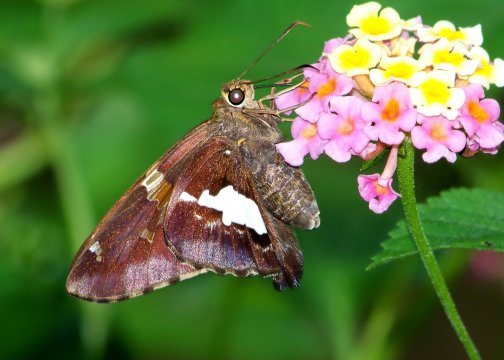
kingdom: Animalia
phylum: Arthropoda
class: Insecta
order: Lepidoptera
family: Hesperiidae
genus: Epargyreus
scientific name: Epargyreus clarus
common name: Silver-spotted Skipper
